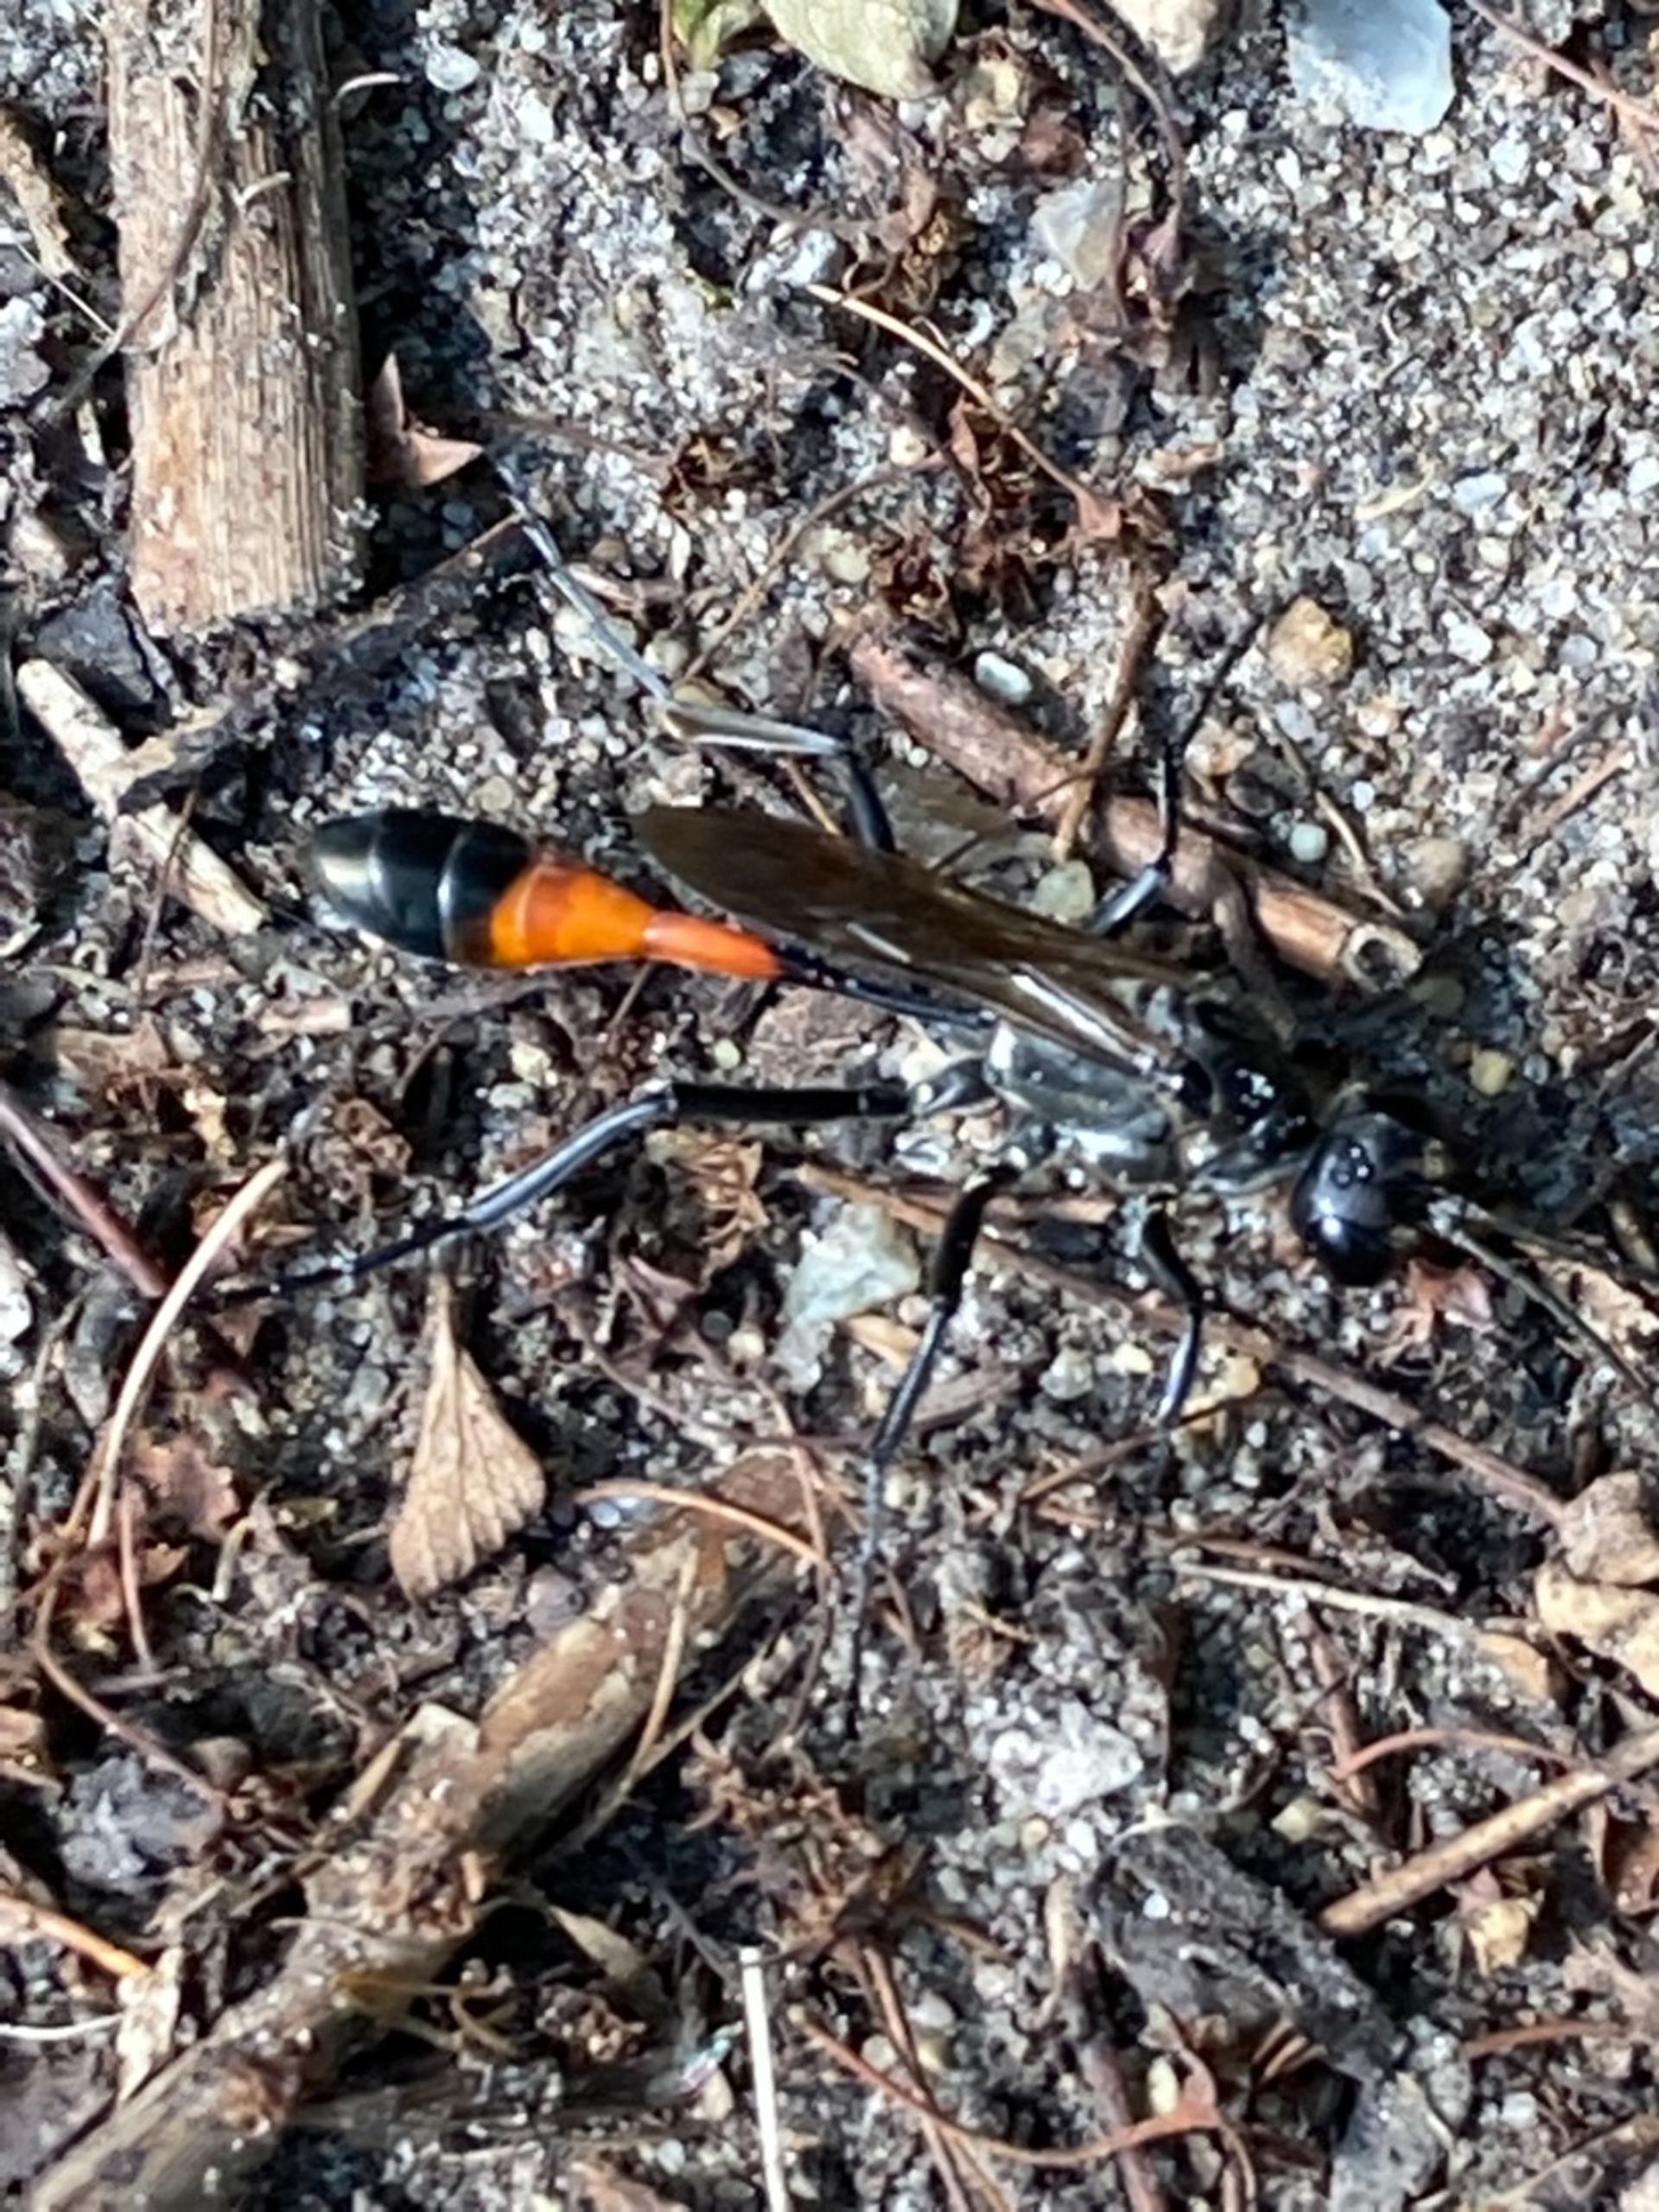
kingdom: Animalia
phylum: Arthropoda
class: Insecta
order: Hymenoptera
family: Sphecidae
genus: Ammophila
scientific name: Ammophila sabulosa
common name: Almindelig sandhveps
